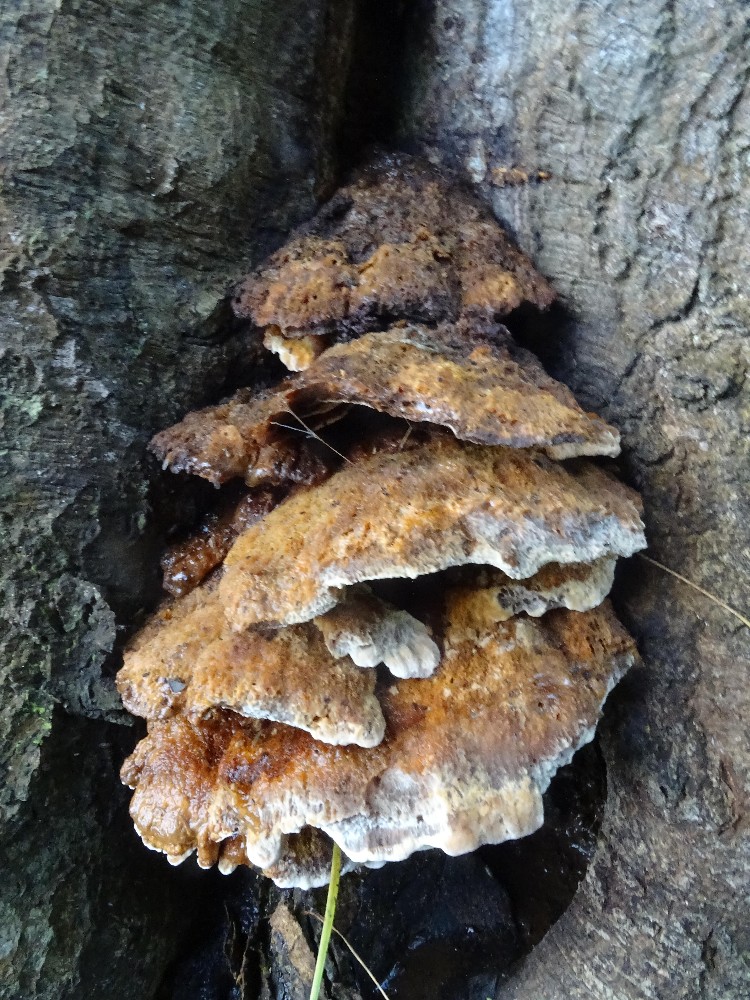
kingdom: Fungi
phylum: Basidiomycota
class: Agaricomycetes
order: Hymenochaetales
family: Hymenochaetaceae
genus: Inonotus
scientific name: Inonotus cuticularis
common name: kroghåret spejlporesvamp
